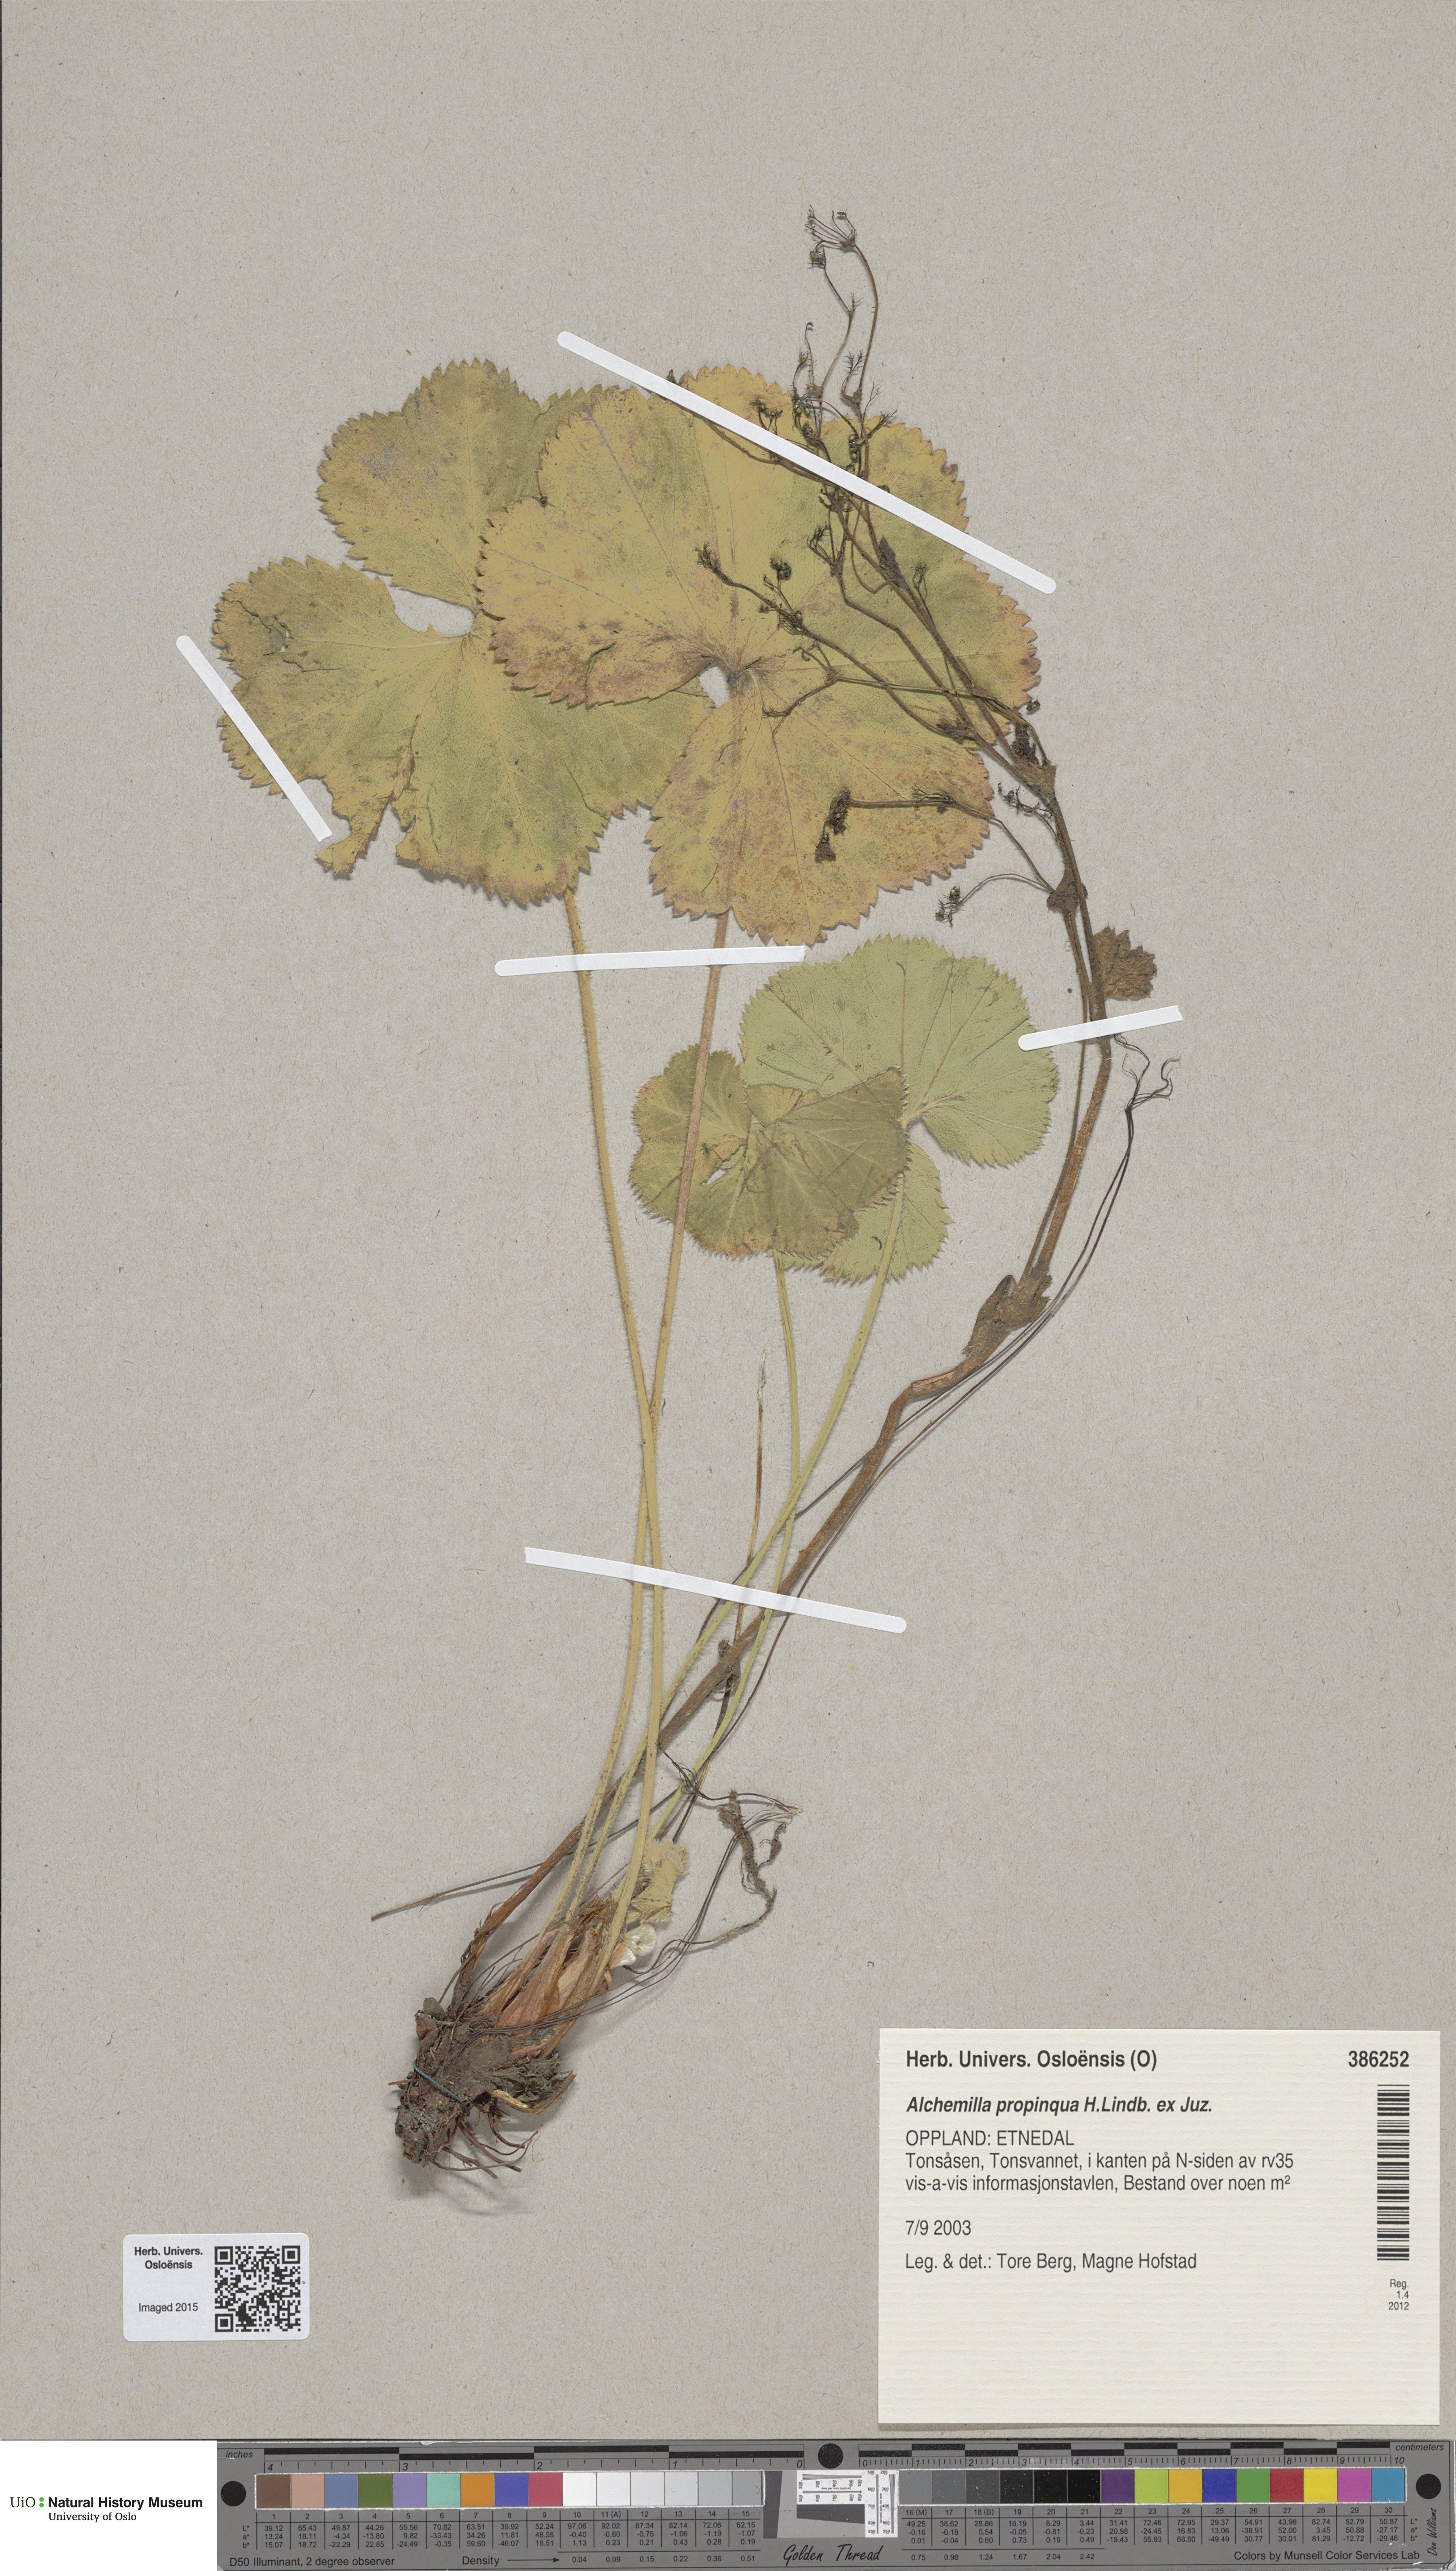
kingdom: Plantae
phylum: Tracheophyta
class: Magnoliopsida
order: Rosales
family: Rosaceae
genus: Alchemilla
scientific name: Alchemilla propinqua
